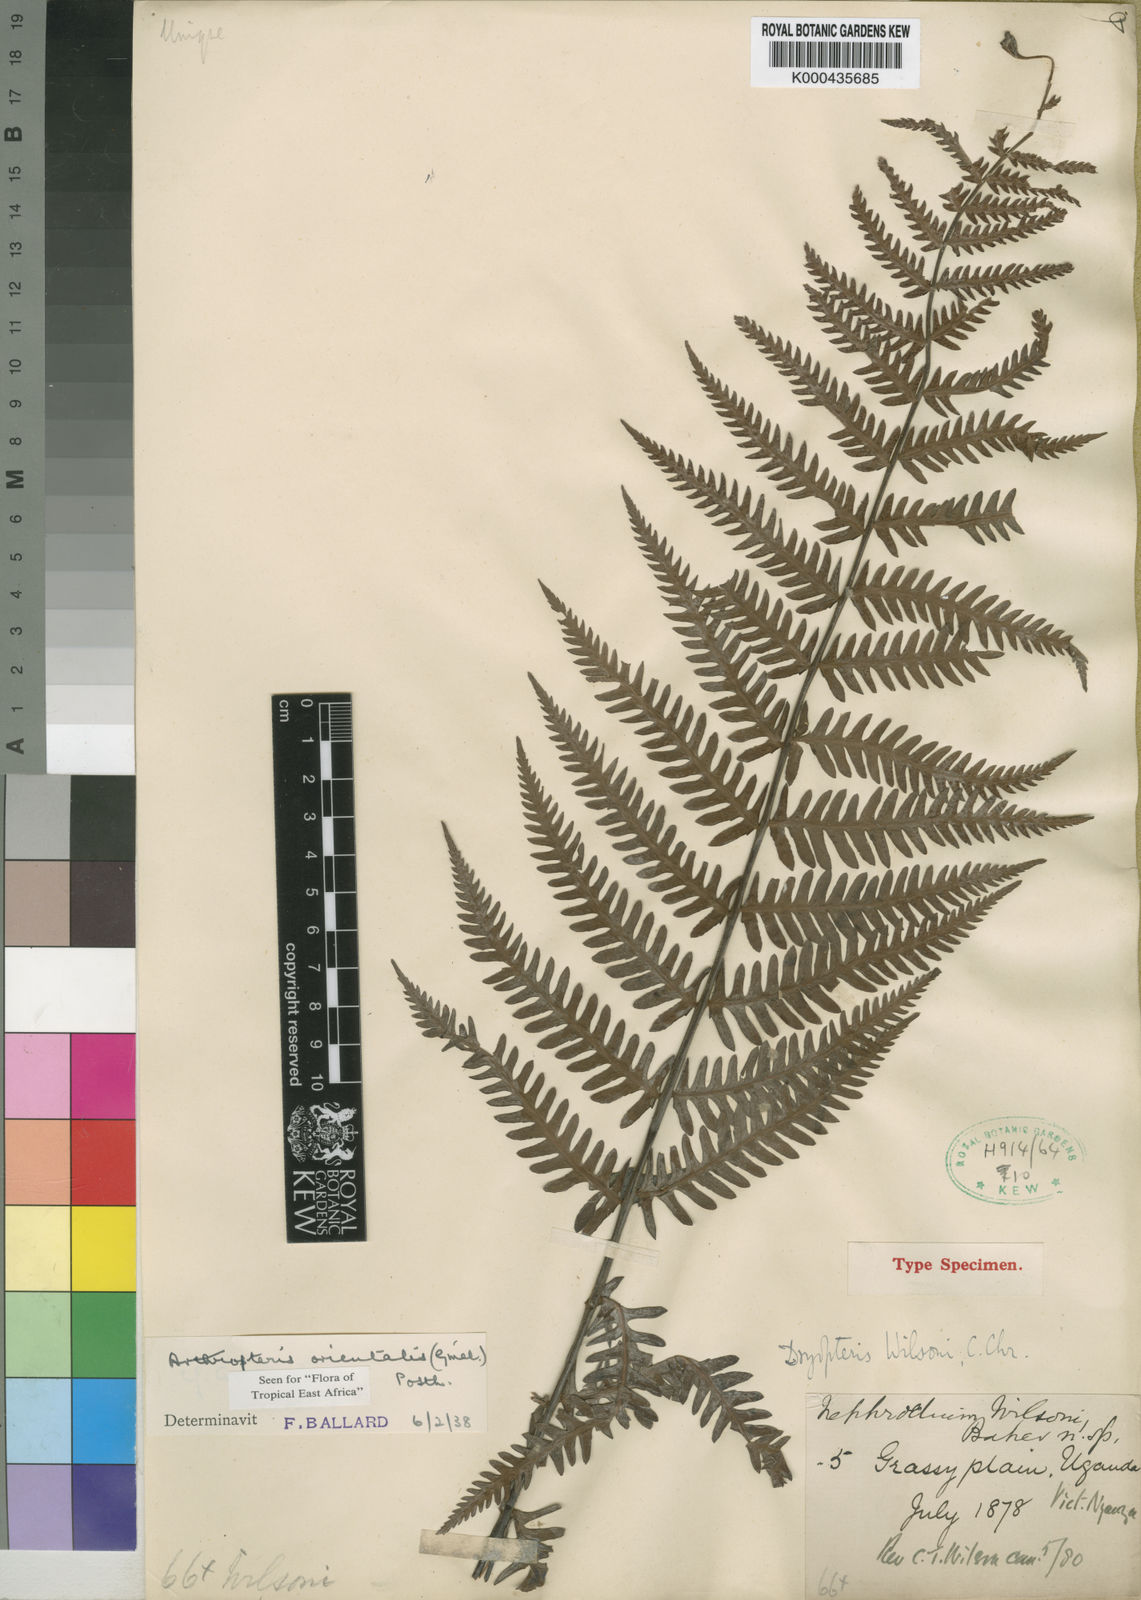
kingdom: Plantae
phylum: Tracheophyta
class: Polypodiopsida
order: Polypodiales
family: Tectariaceae
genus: Arthropteris
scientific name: Arthropteris orientalis
